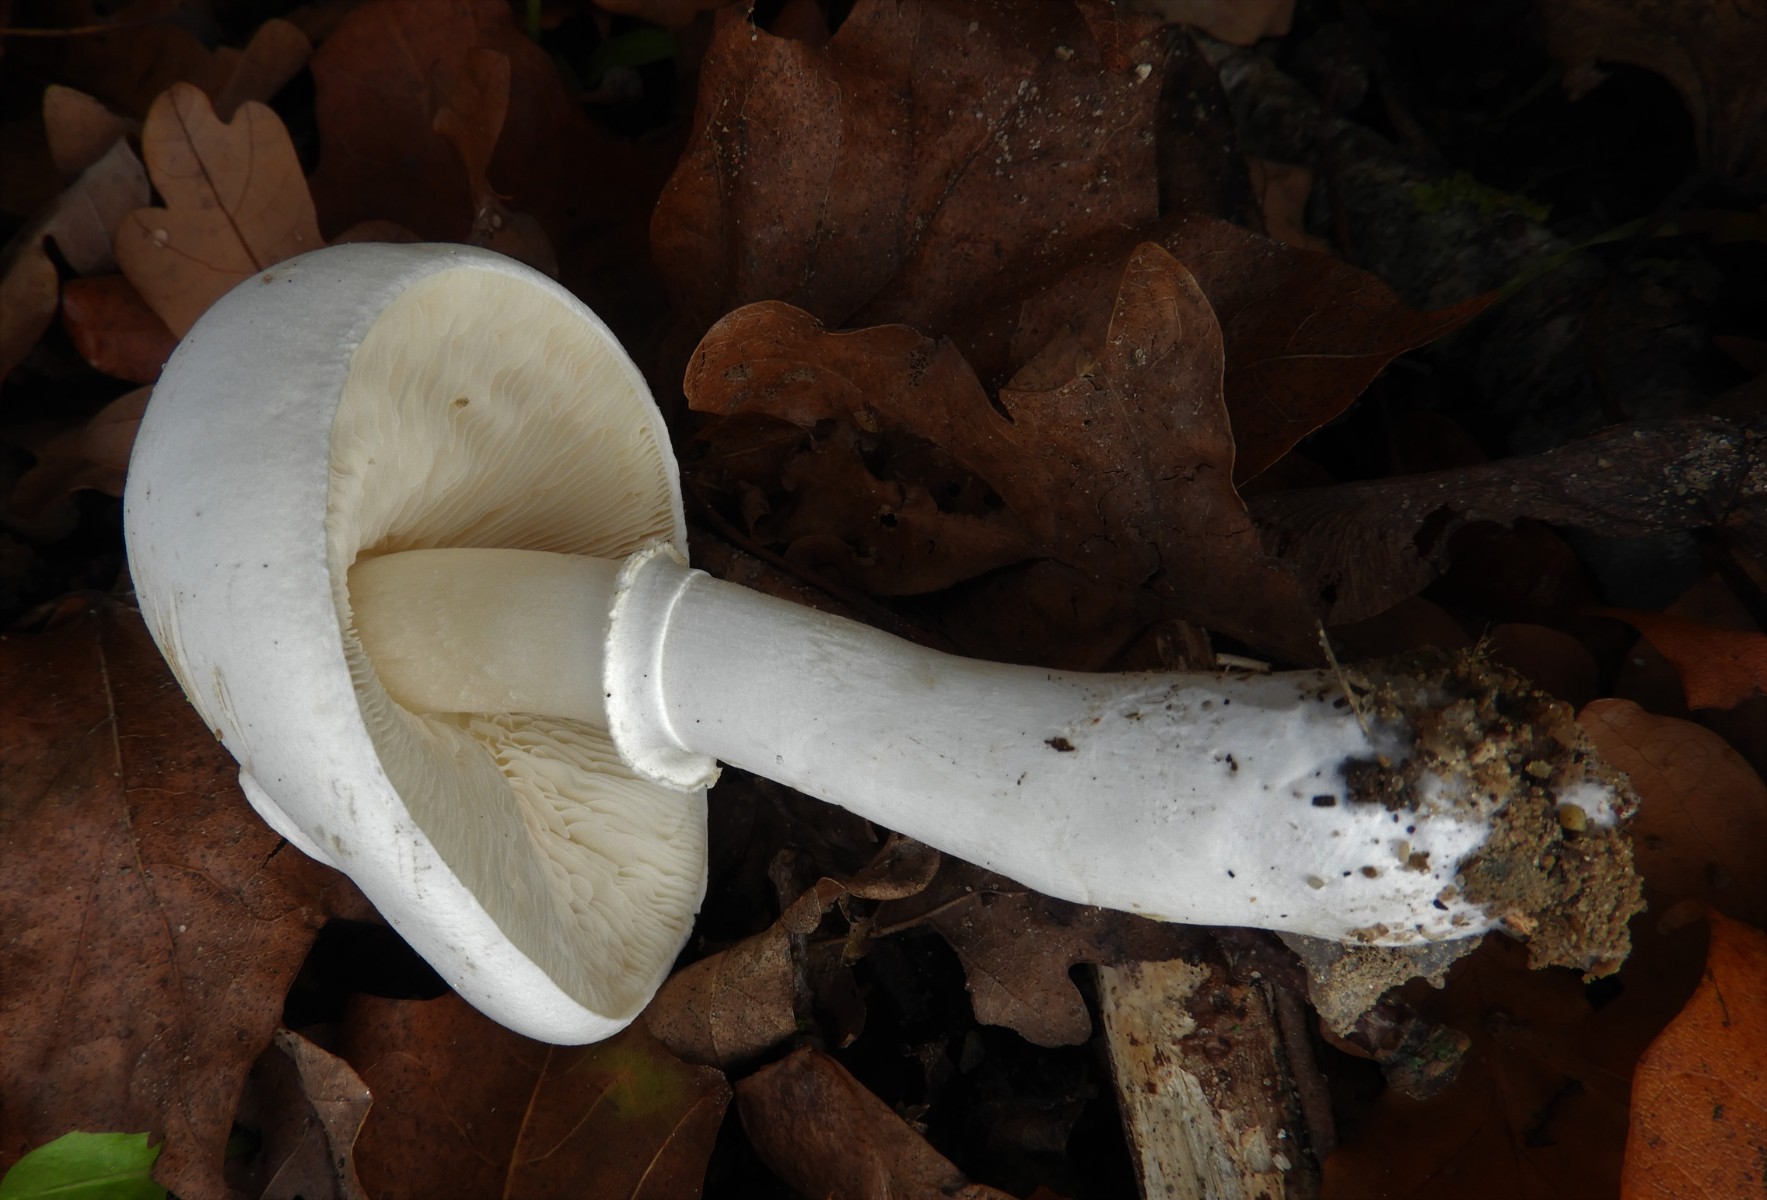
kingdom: Fungi
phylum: Basidiomycota
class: Agaricomycetes
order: Agaricales
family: Agaricaceae
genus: Leucoagaricus
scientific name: Leucoagaricus leucothites
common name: rosabladet silkehat
